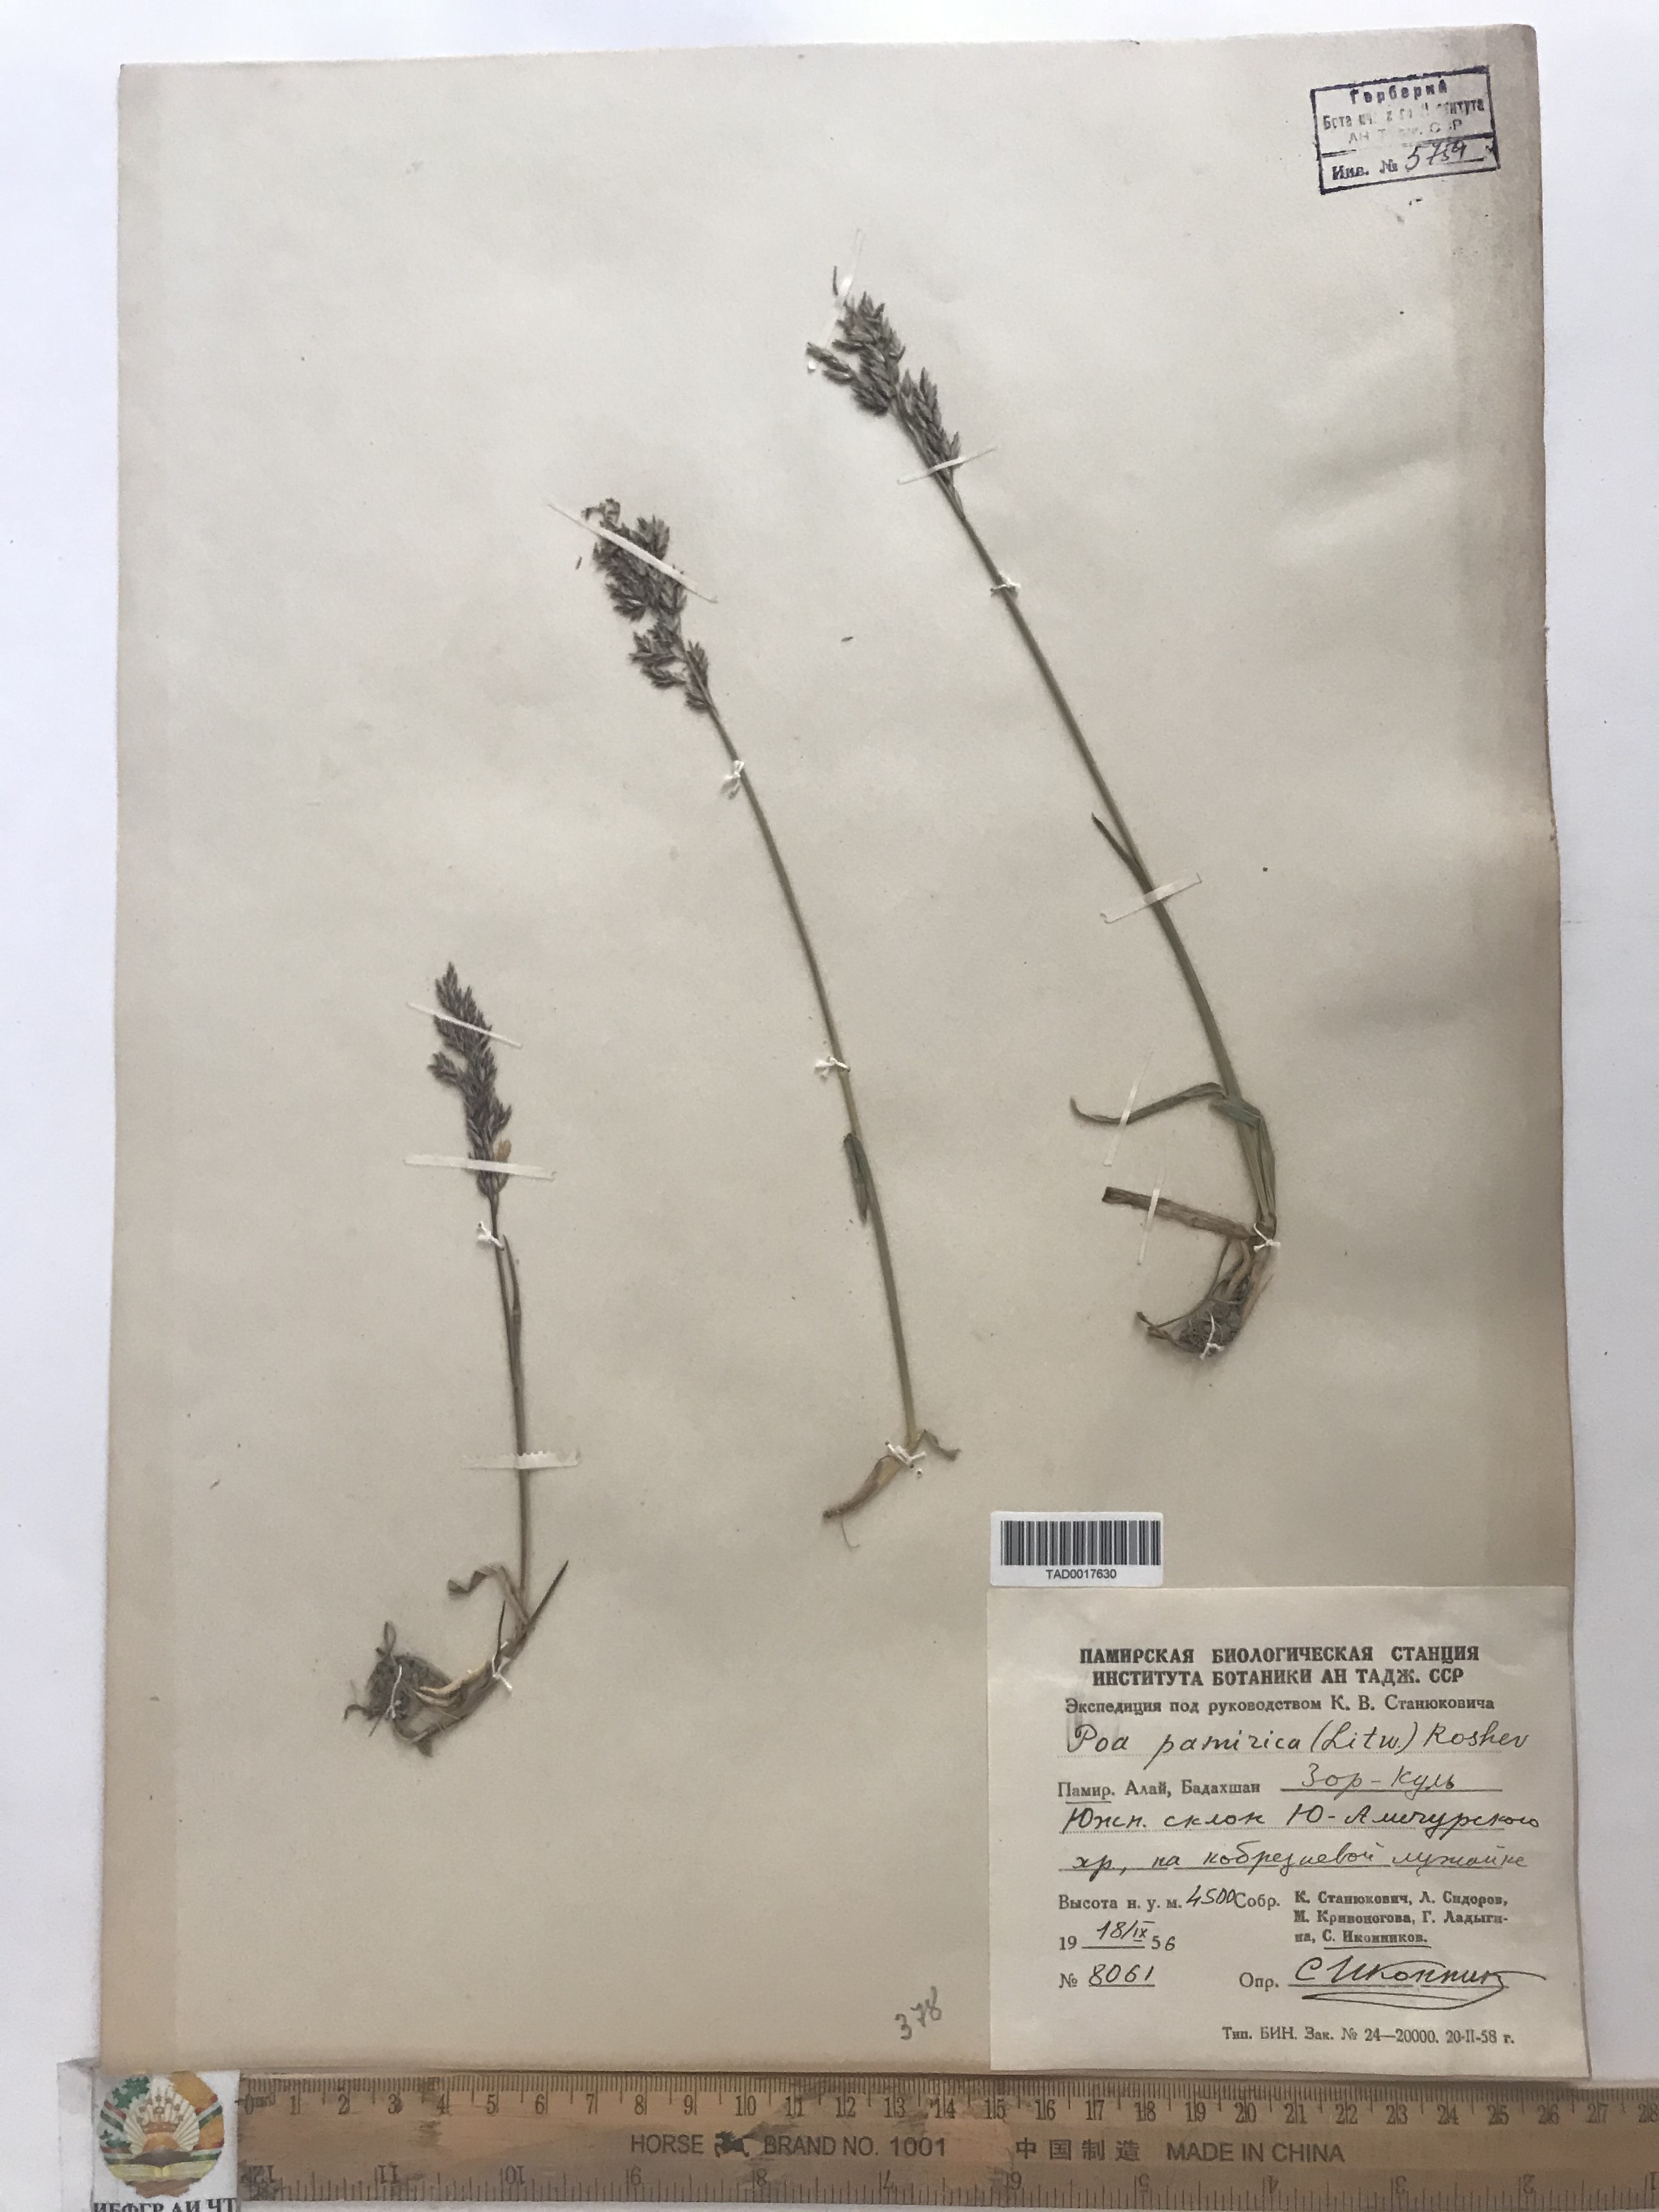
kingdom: Plantae
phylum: Tracheophyta
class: Liliopsida
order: Poales
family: Poaceae
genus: Poa
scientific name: Poa tianschanica
